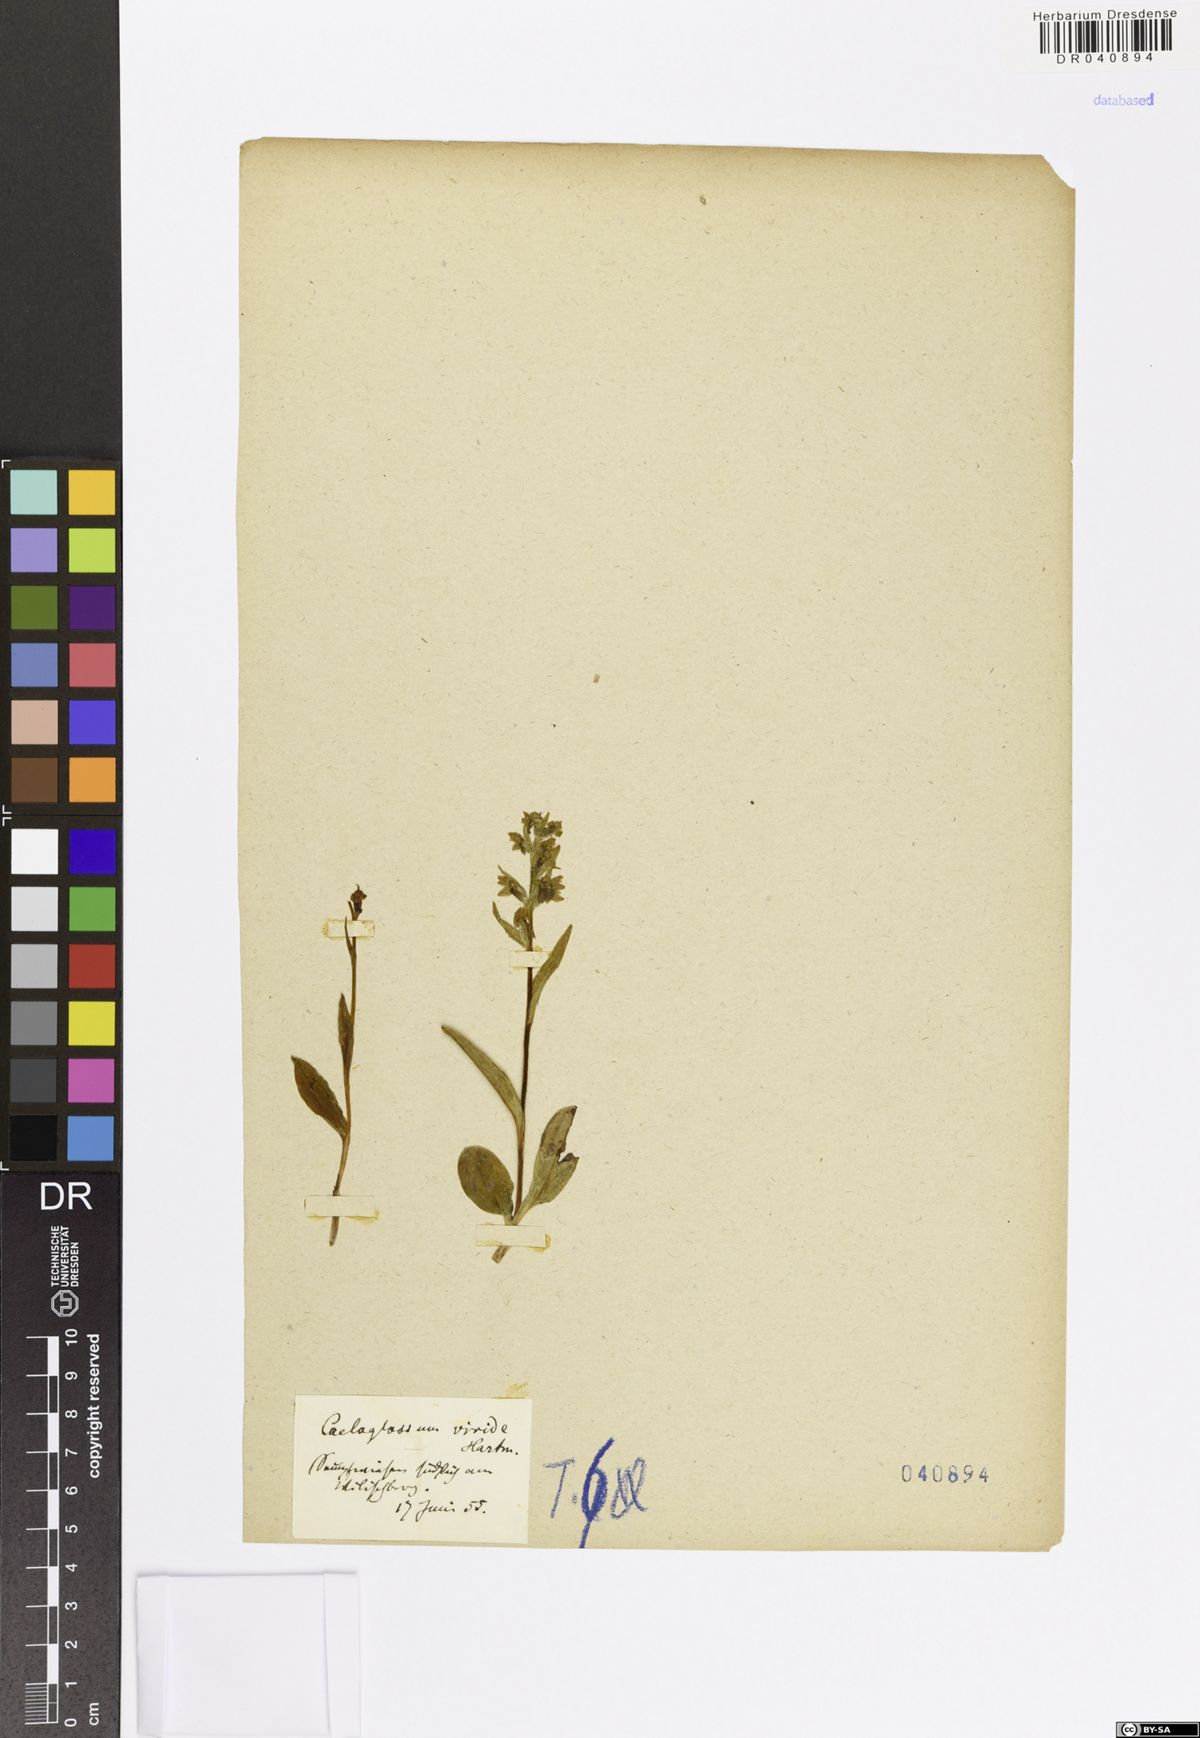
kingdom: Plantae
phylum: Tracheophyta
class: Liliopsida
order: Asparagales
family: Orchidaceae
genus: Dactylorhiza
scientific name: Dactylorhiza viridis
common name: Longbract frog orchid
